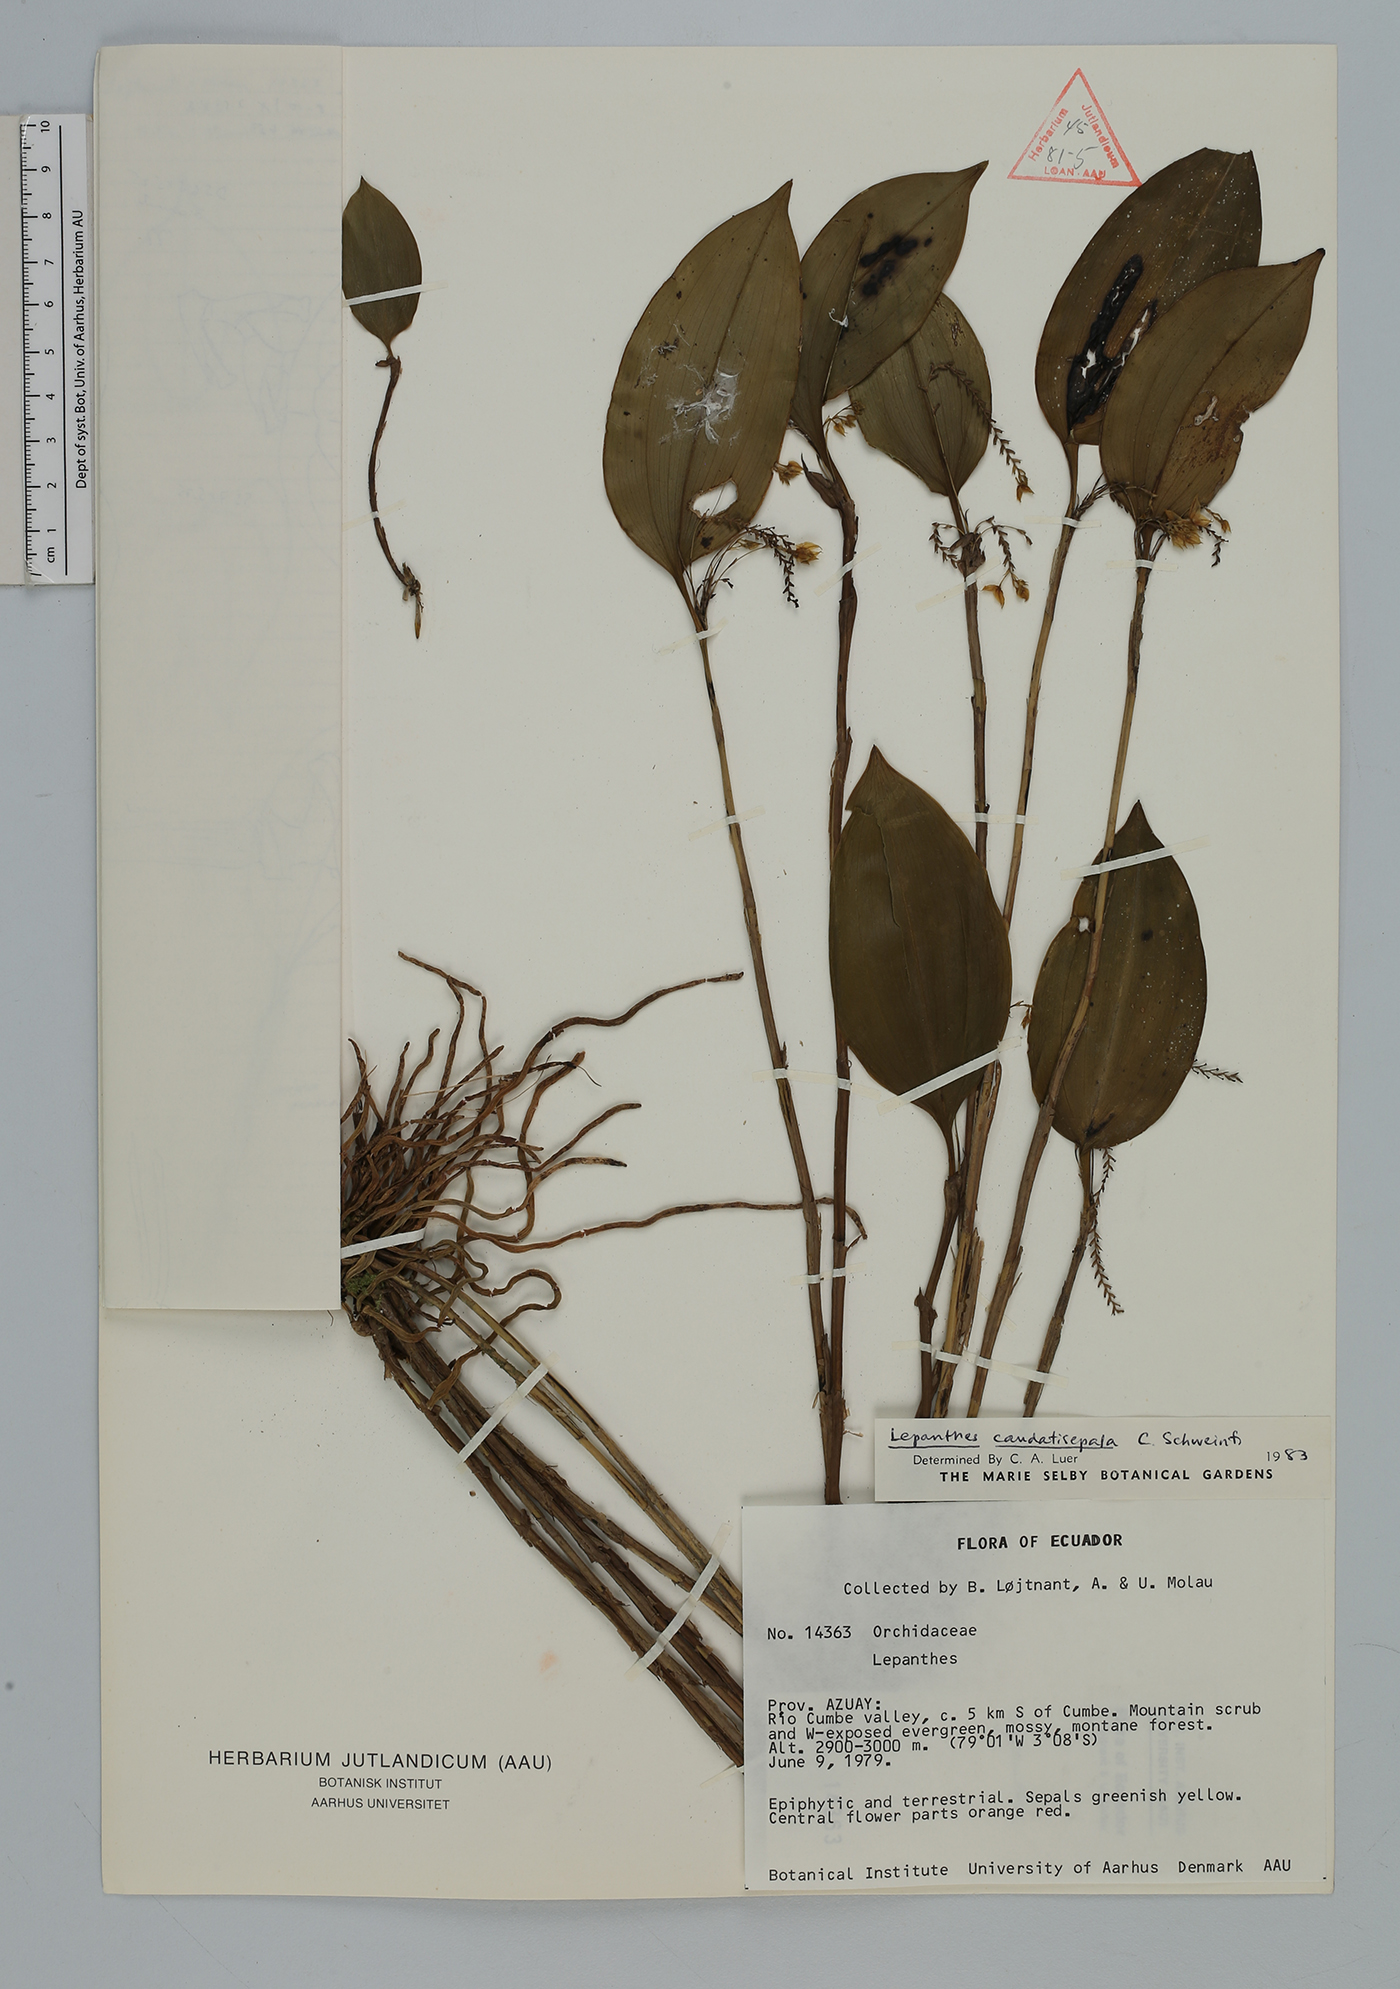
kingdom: Plantae
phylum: Tracheophyta
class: Liliopsida
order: Asparagales
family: Orchidaceae
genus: Lepanthes
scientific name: Lepanthes
